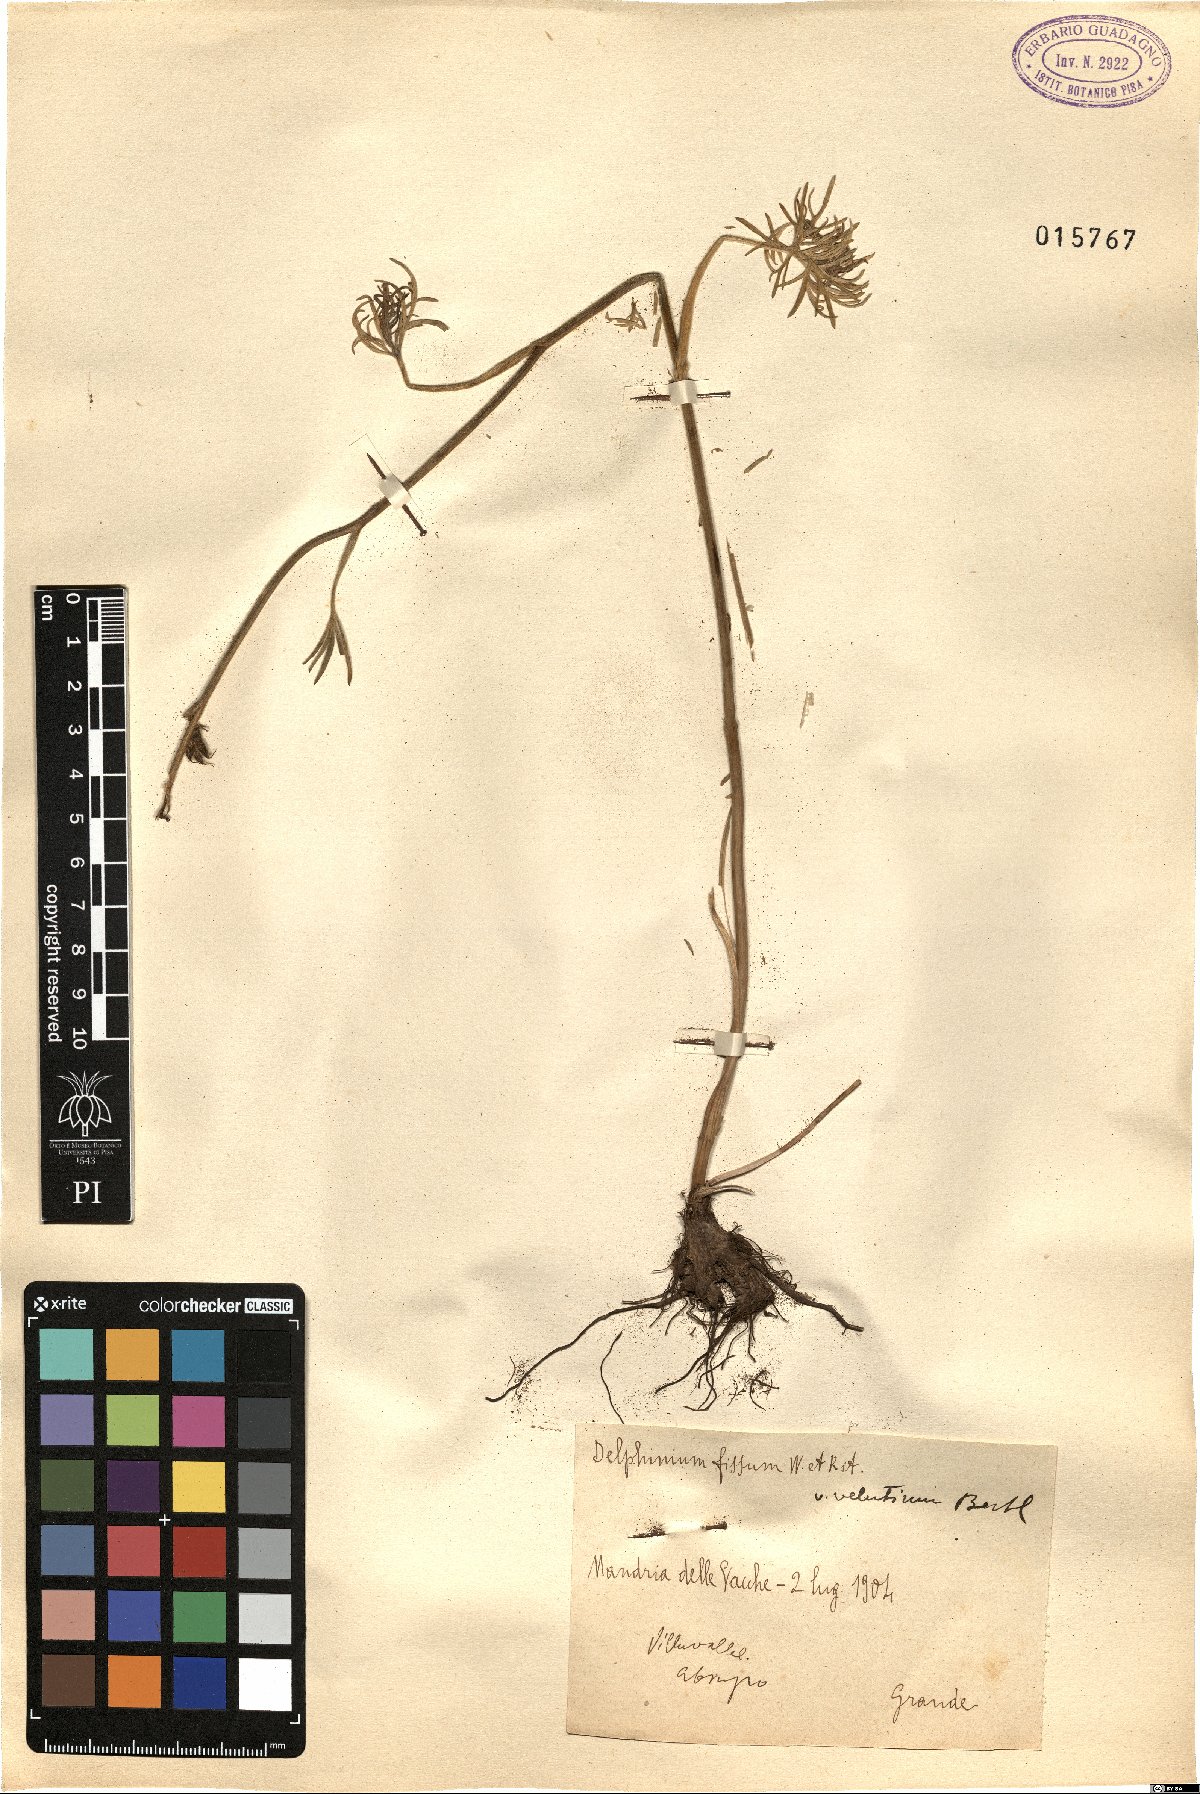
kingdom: Plantae
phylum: Tracheophyta
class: Magnoliopsida
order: Ranunculales
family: Ranunculaceae
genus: Delphinium
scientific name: Delphinium fissum
